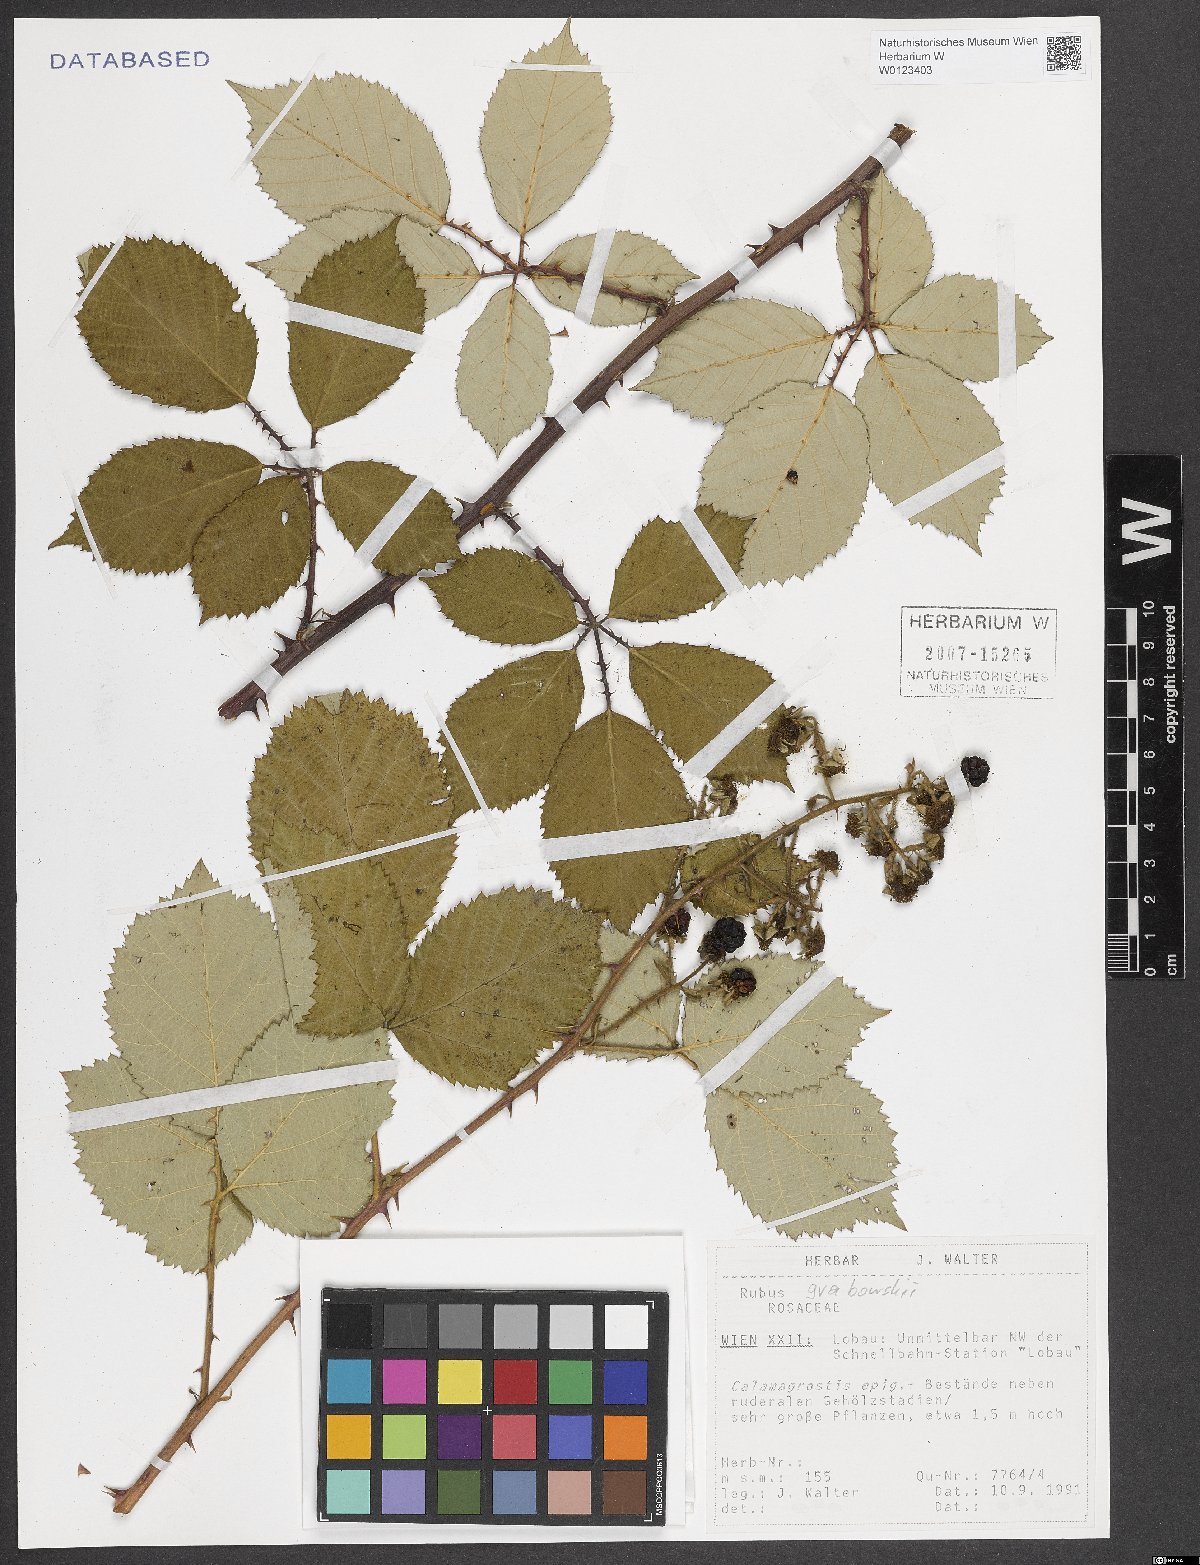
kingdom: Plantae
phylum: Tracheophyta
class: Magnoliopsida
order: Rosales
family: Rosaceae
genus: Rubus
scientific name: Rubus grabowskii
